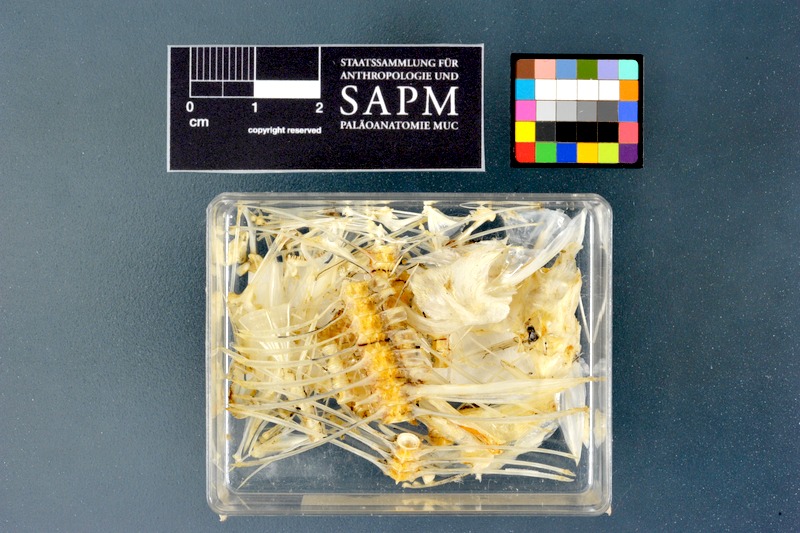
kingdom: Animalia
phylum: Chordata
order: Pleuronectiformes
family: Bothidae
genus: Bothus
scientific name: Bothus podas
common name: Wide-eyed flounder
